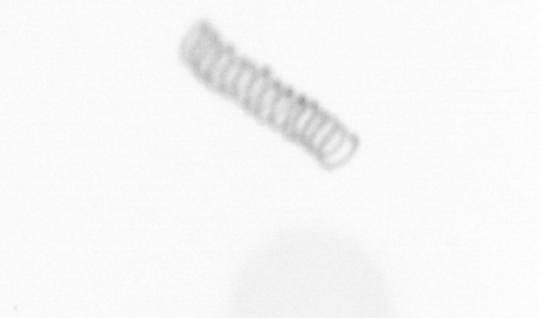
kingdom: Chromista
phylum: Ochrophyta
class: Bacillariophyceae
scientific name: Bacillariophyceae
